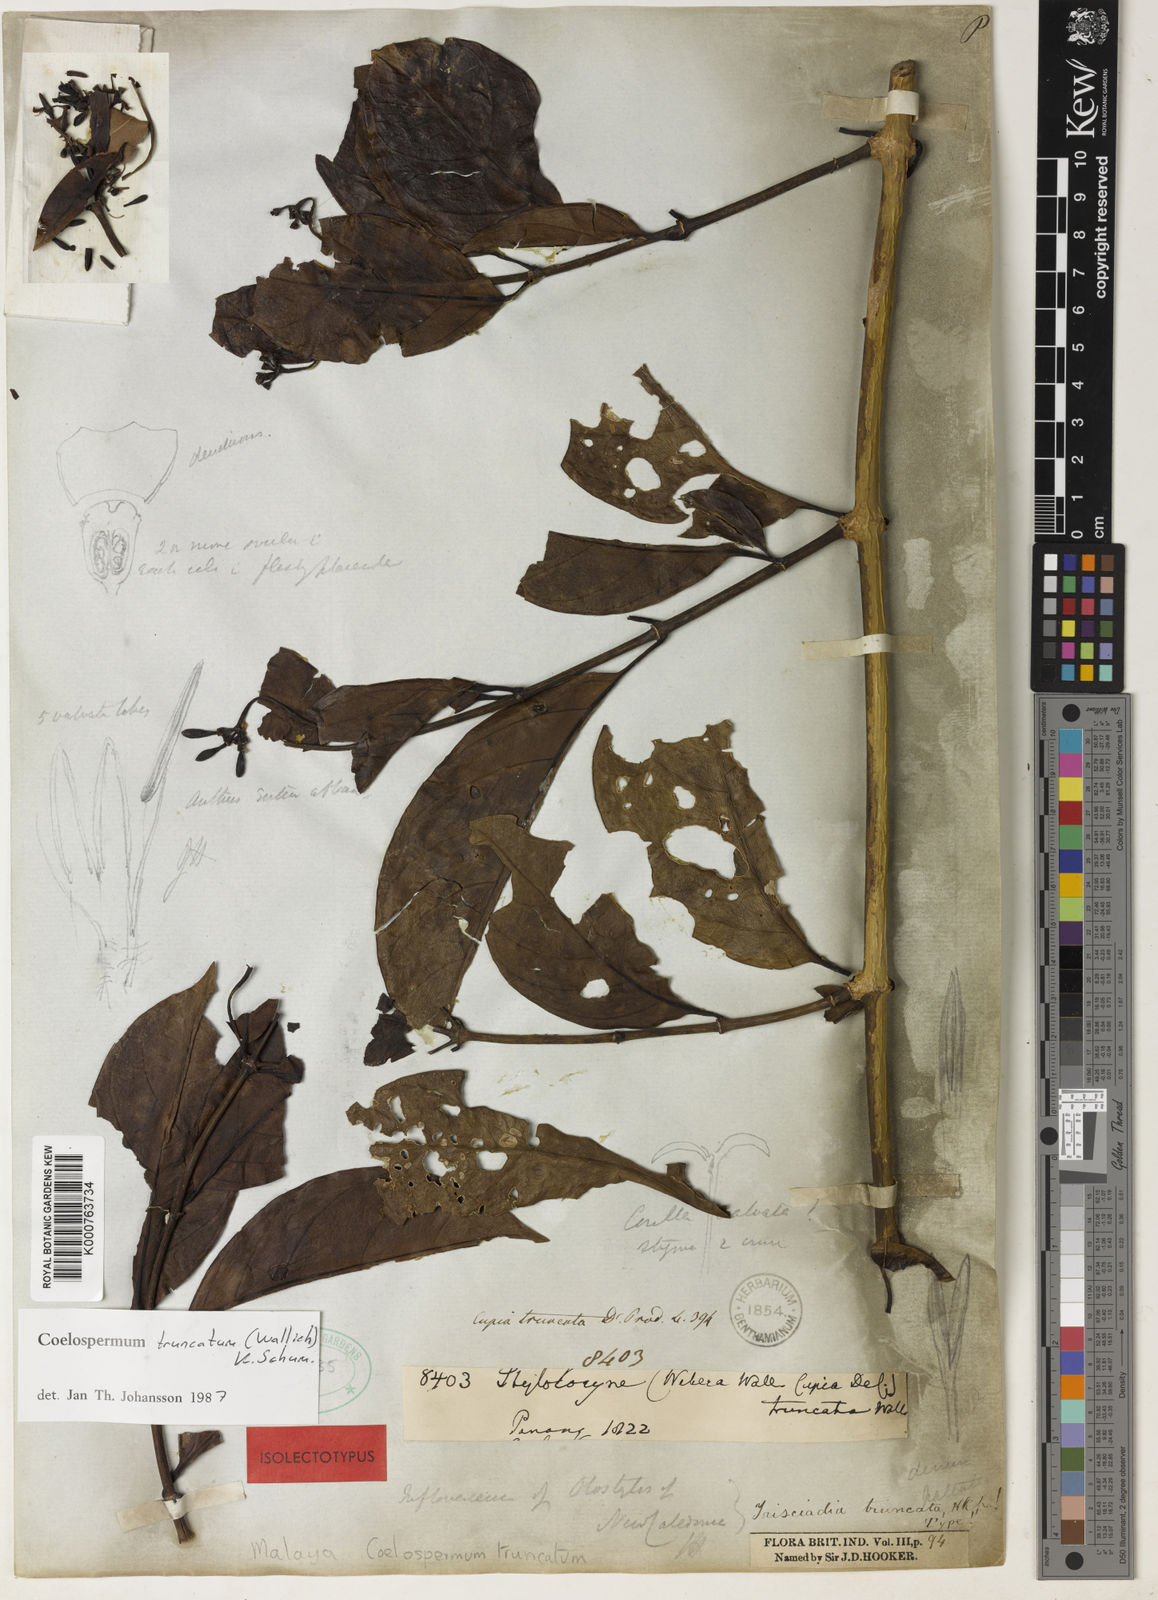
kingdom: Plantae
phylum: Tracheophyta
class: Magnoliopsida
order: Gentianales
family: Rubiaceae
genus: Coelospermum
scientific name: Coelospermum truncatum
